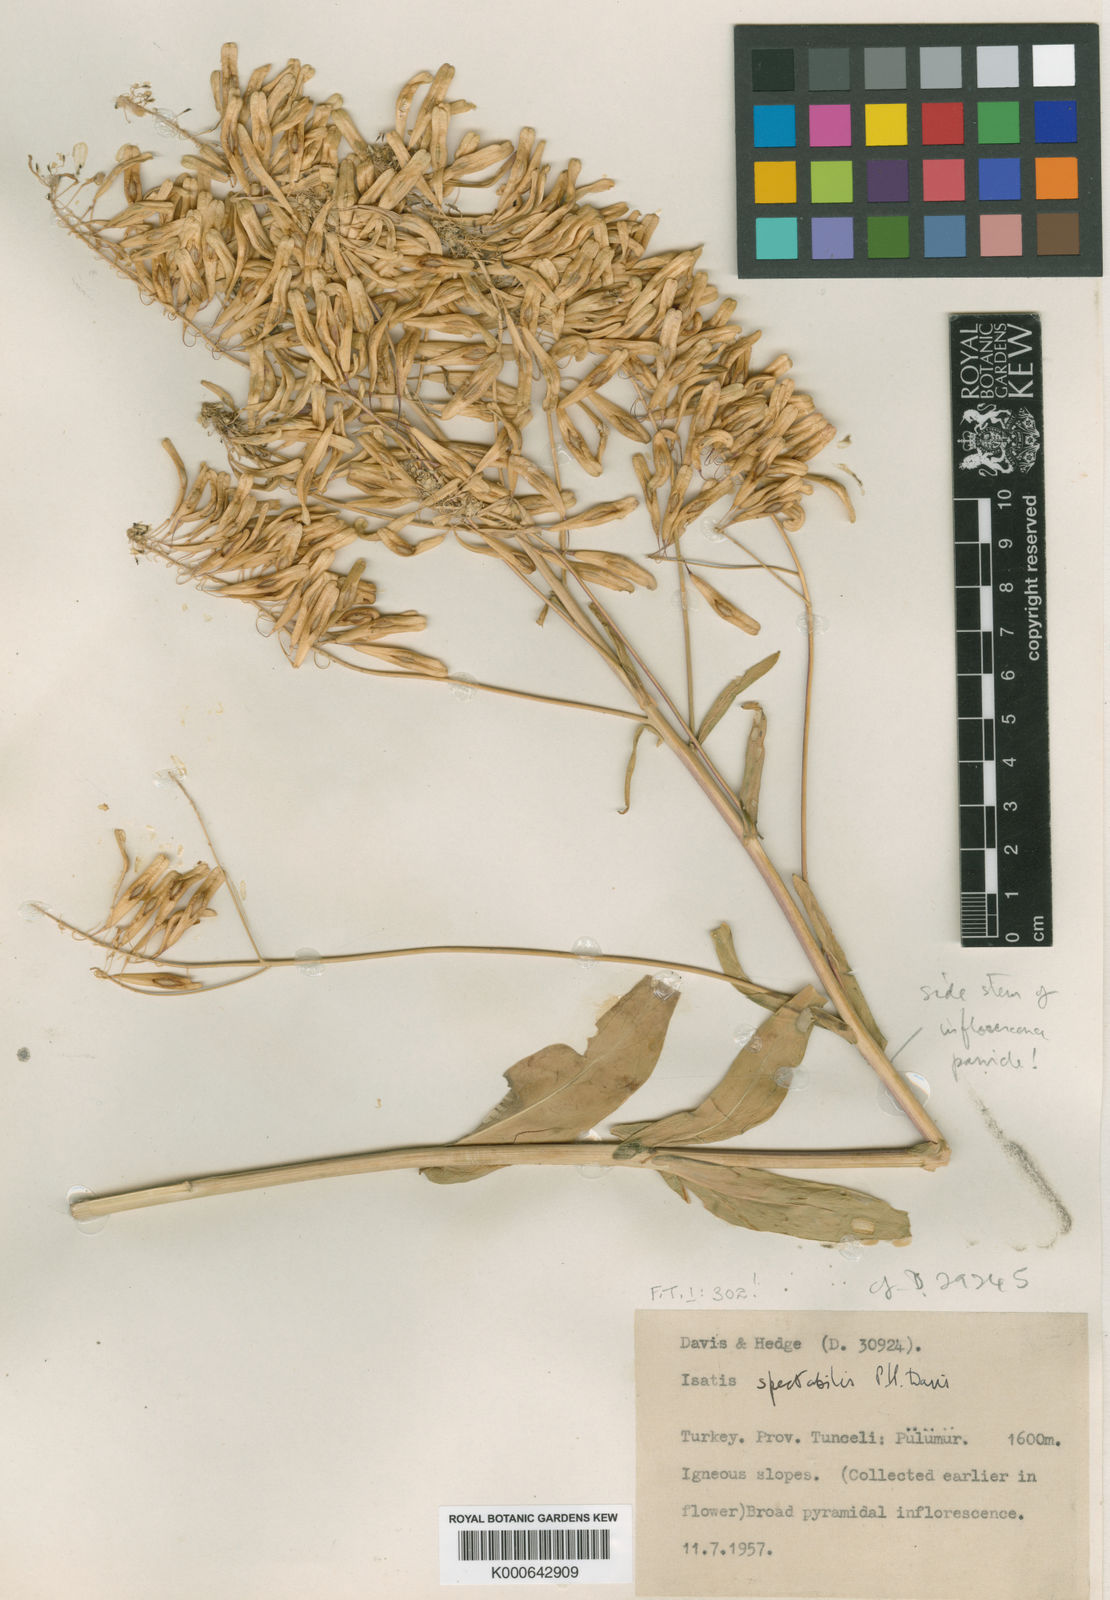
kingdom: Plantae
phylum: Tracheophyta
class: Magnoliopsida
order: Brassicales
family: Brassicaceae
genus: Isatis
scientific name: Isatis spectabilis
